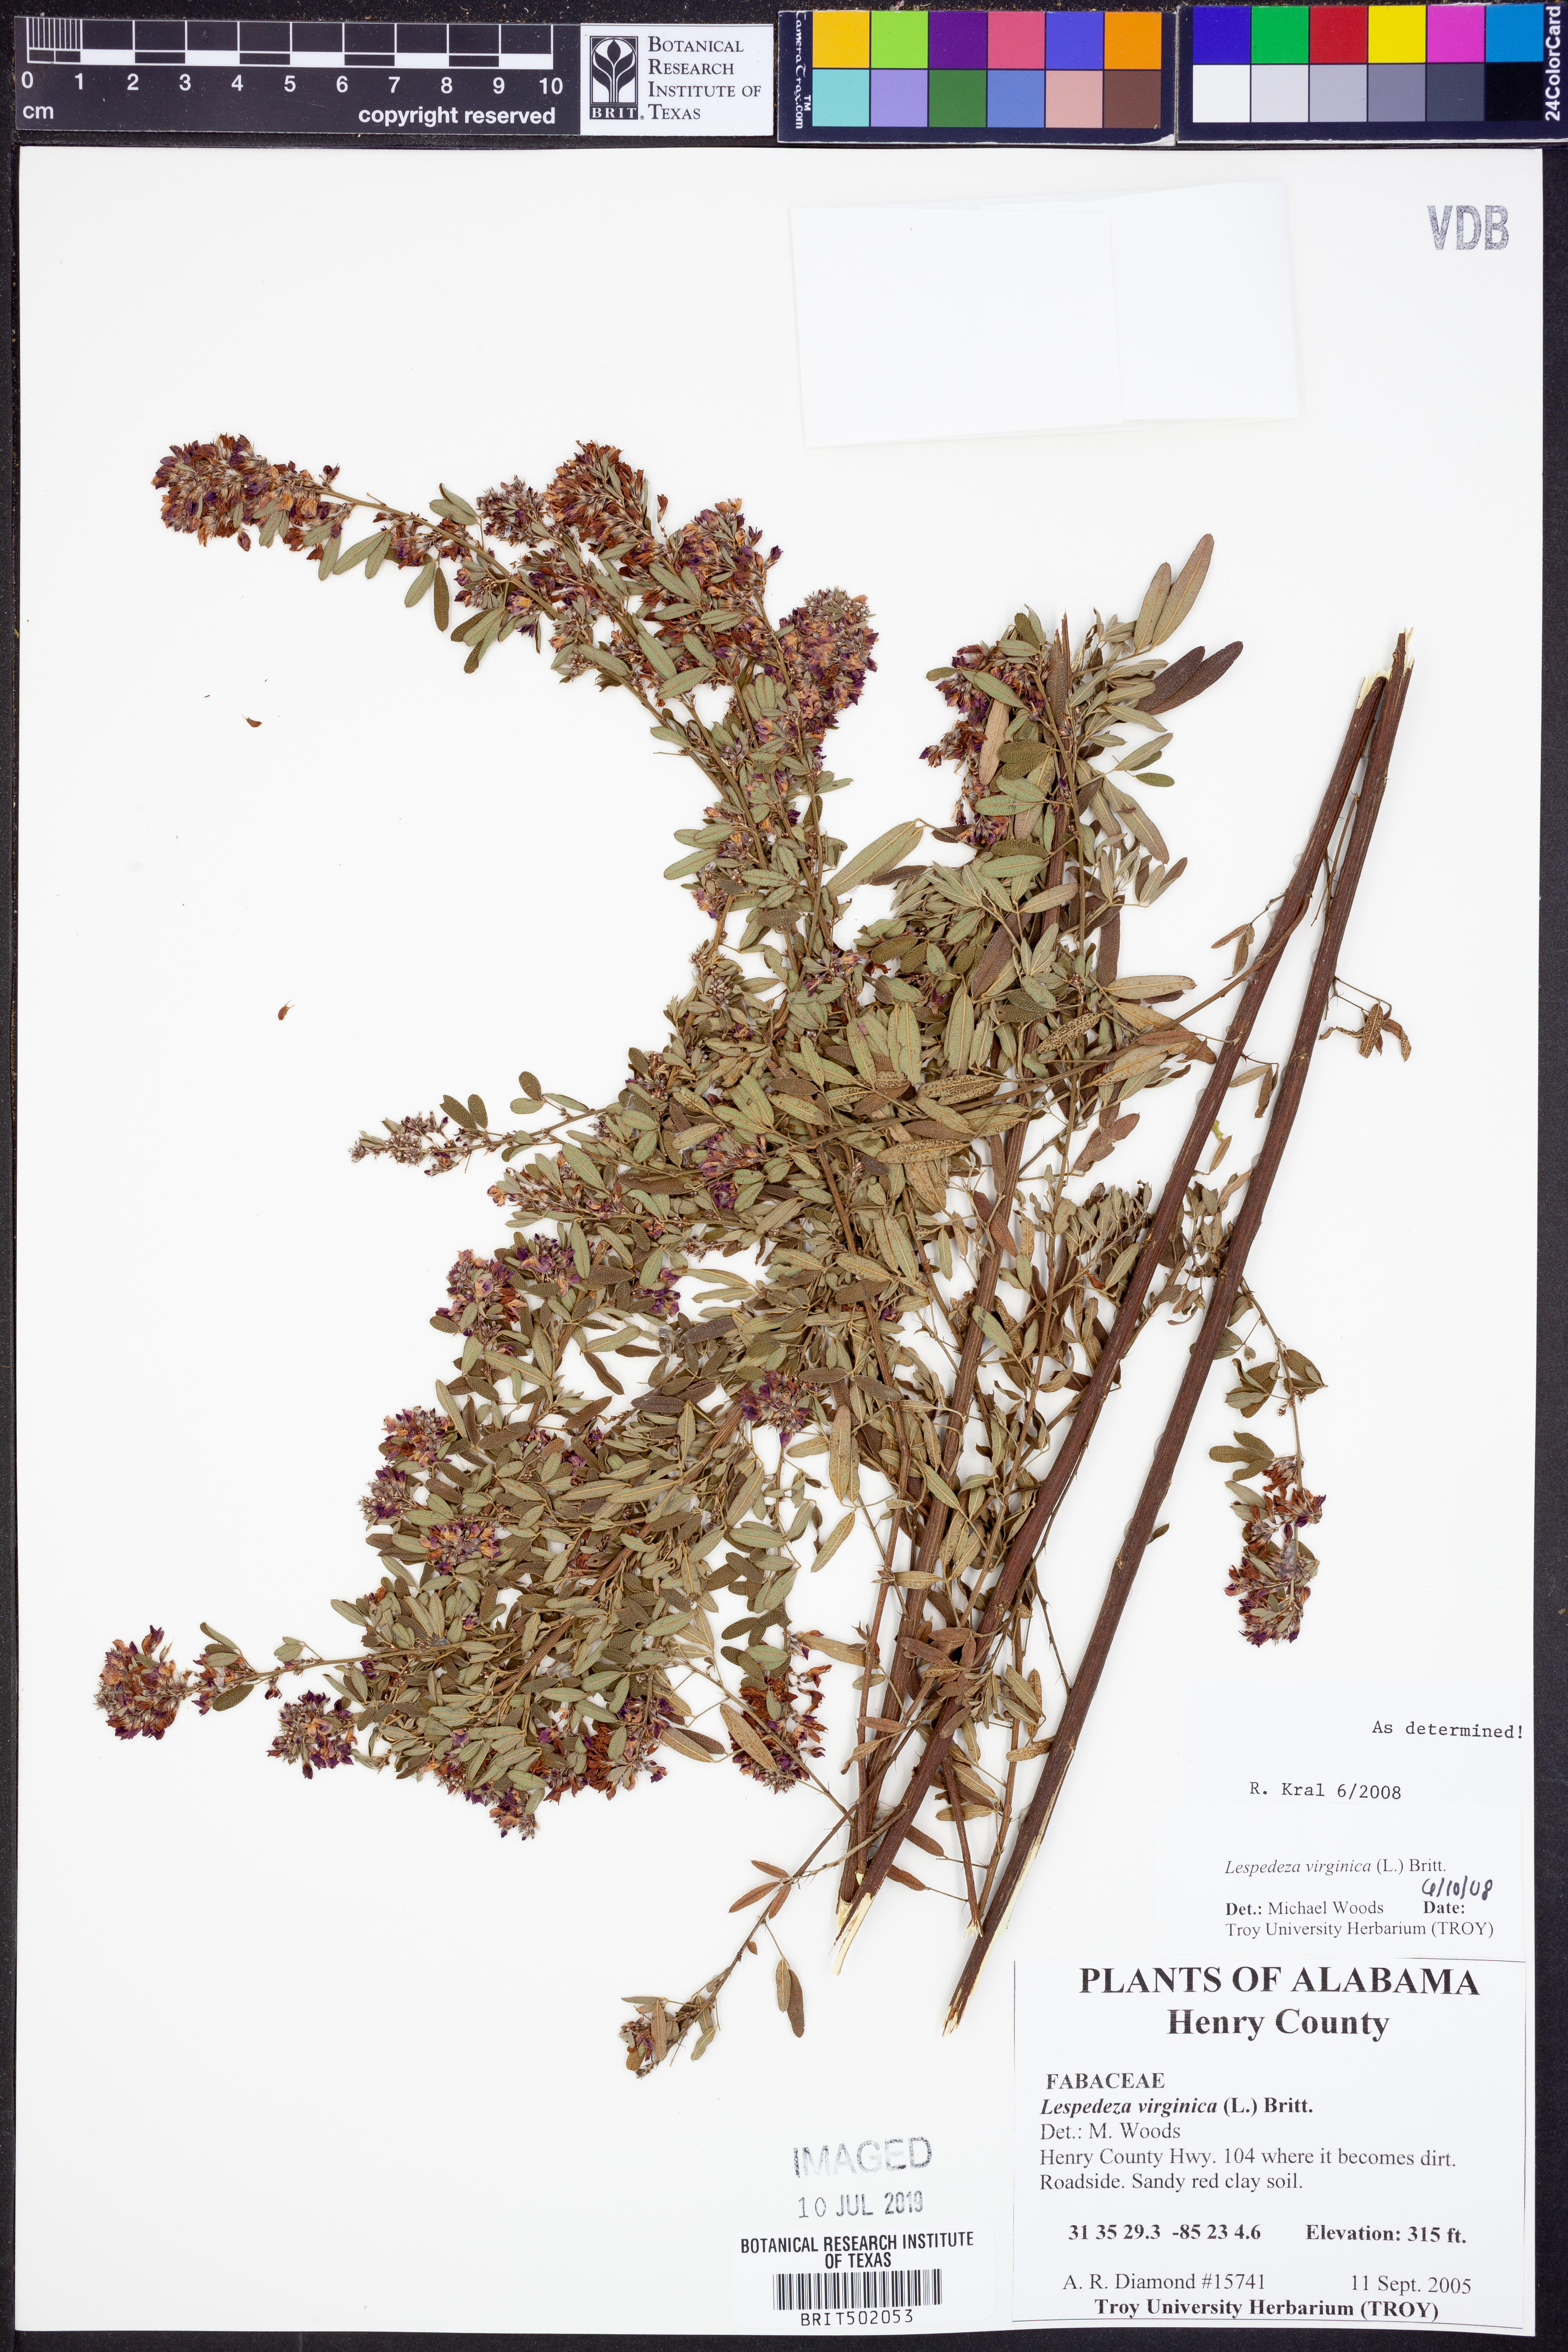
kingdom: Plantae
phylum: Tracheophyta
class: Magnoliopsida
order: Fabales
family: Fabaceae
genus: Lespedeza
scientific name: Lespedeza virginica
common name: Slender bush-clover
